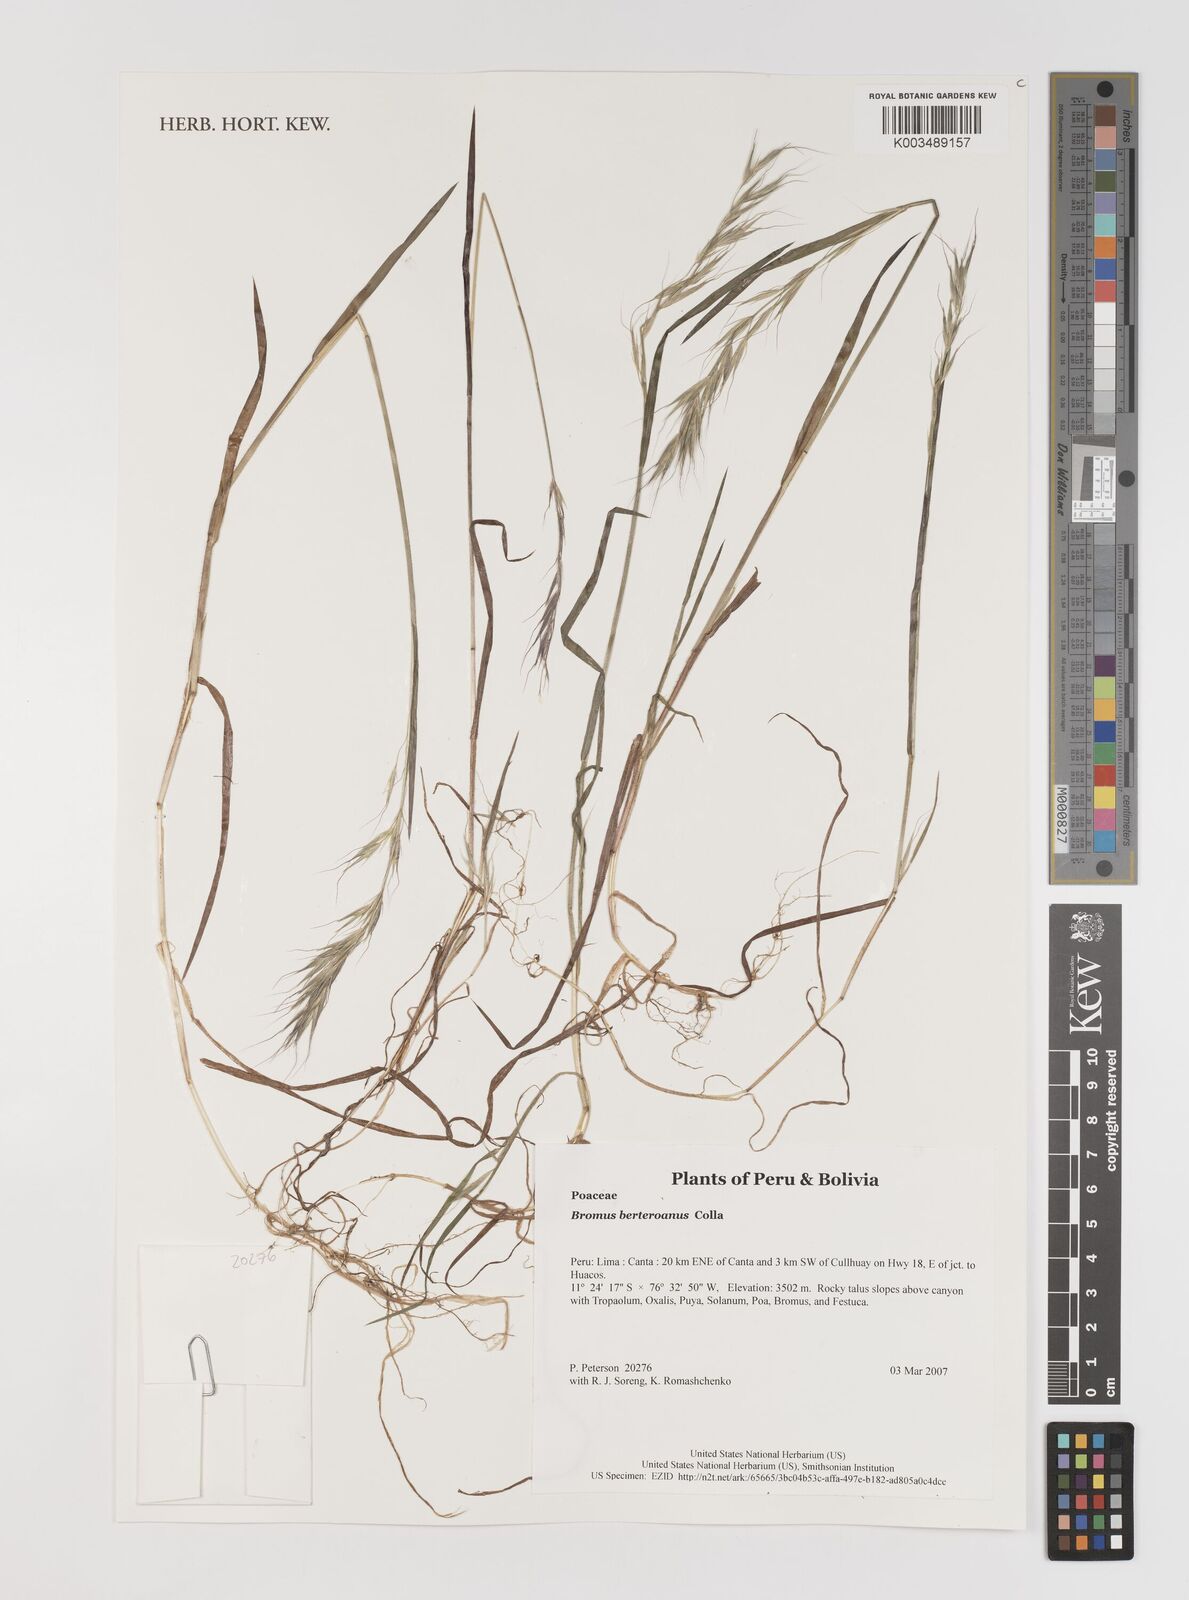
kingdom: Plantae
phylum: Tracheophyta
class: Liliopsida
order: Poales
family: Poaceae
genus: Bromus
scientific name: Bromus berteroanus
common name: Chilean chess
